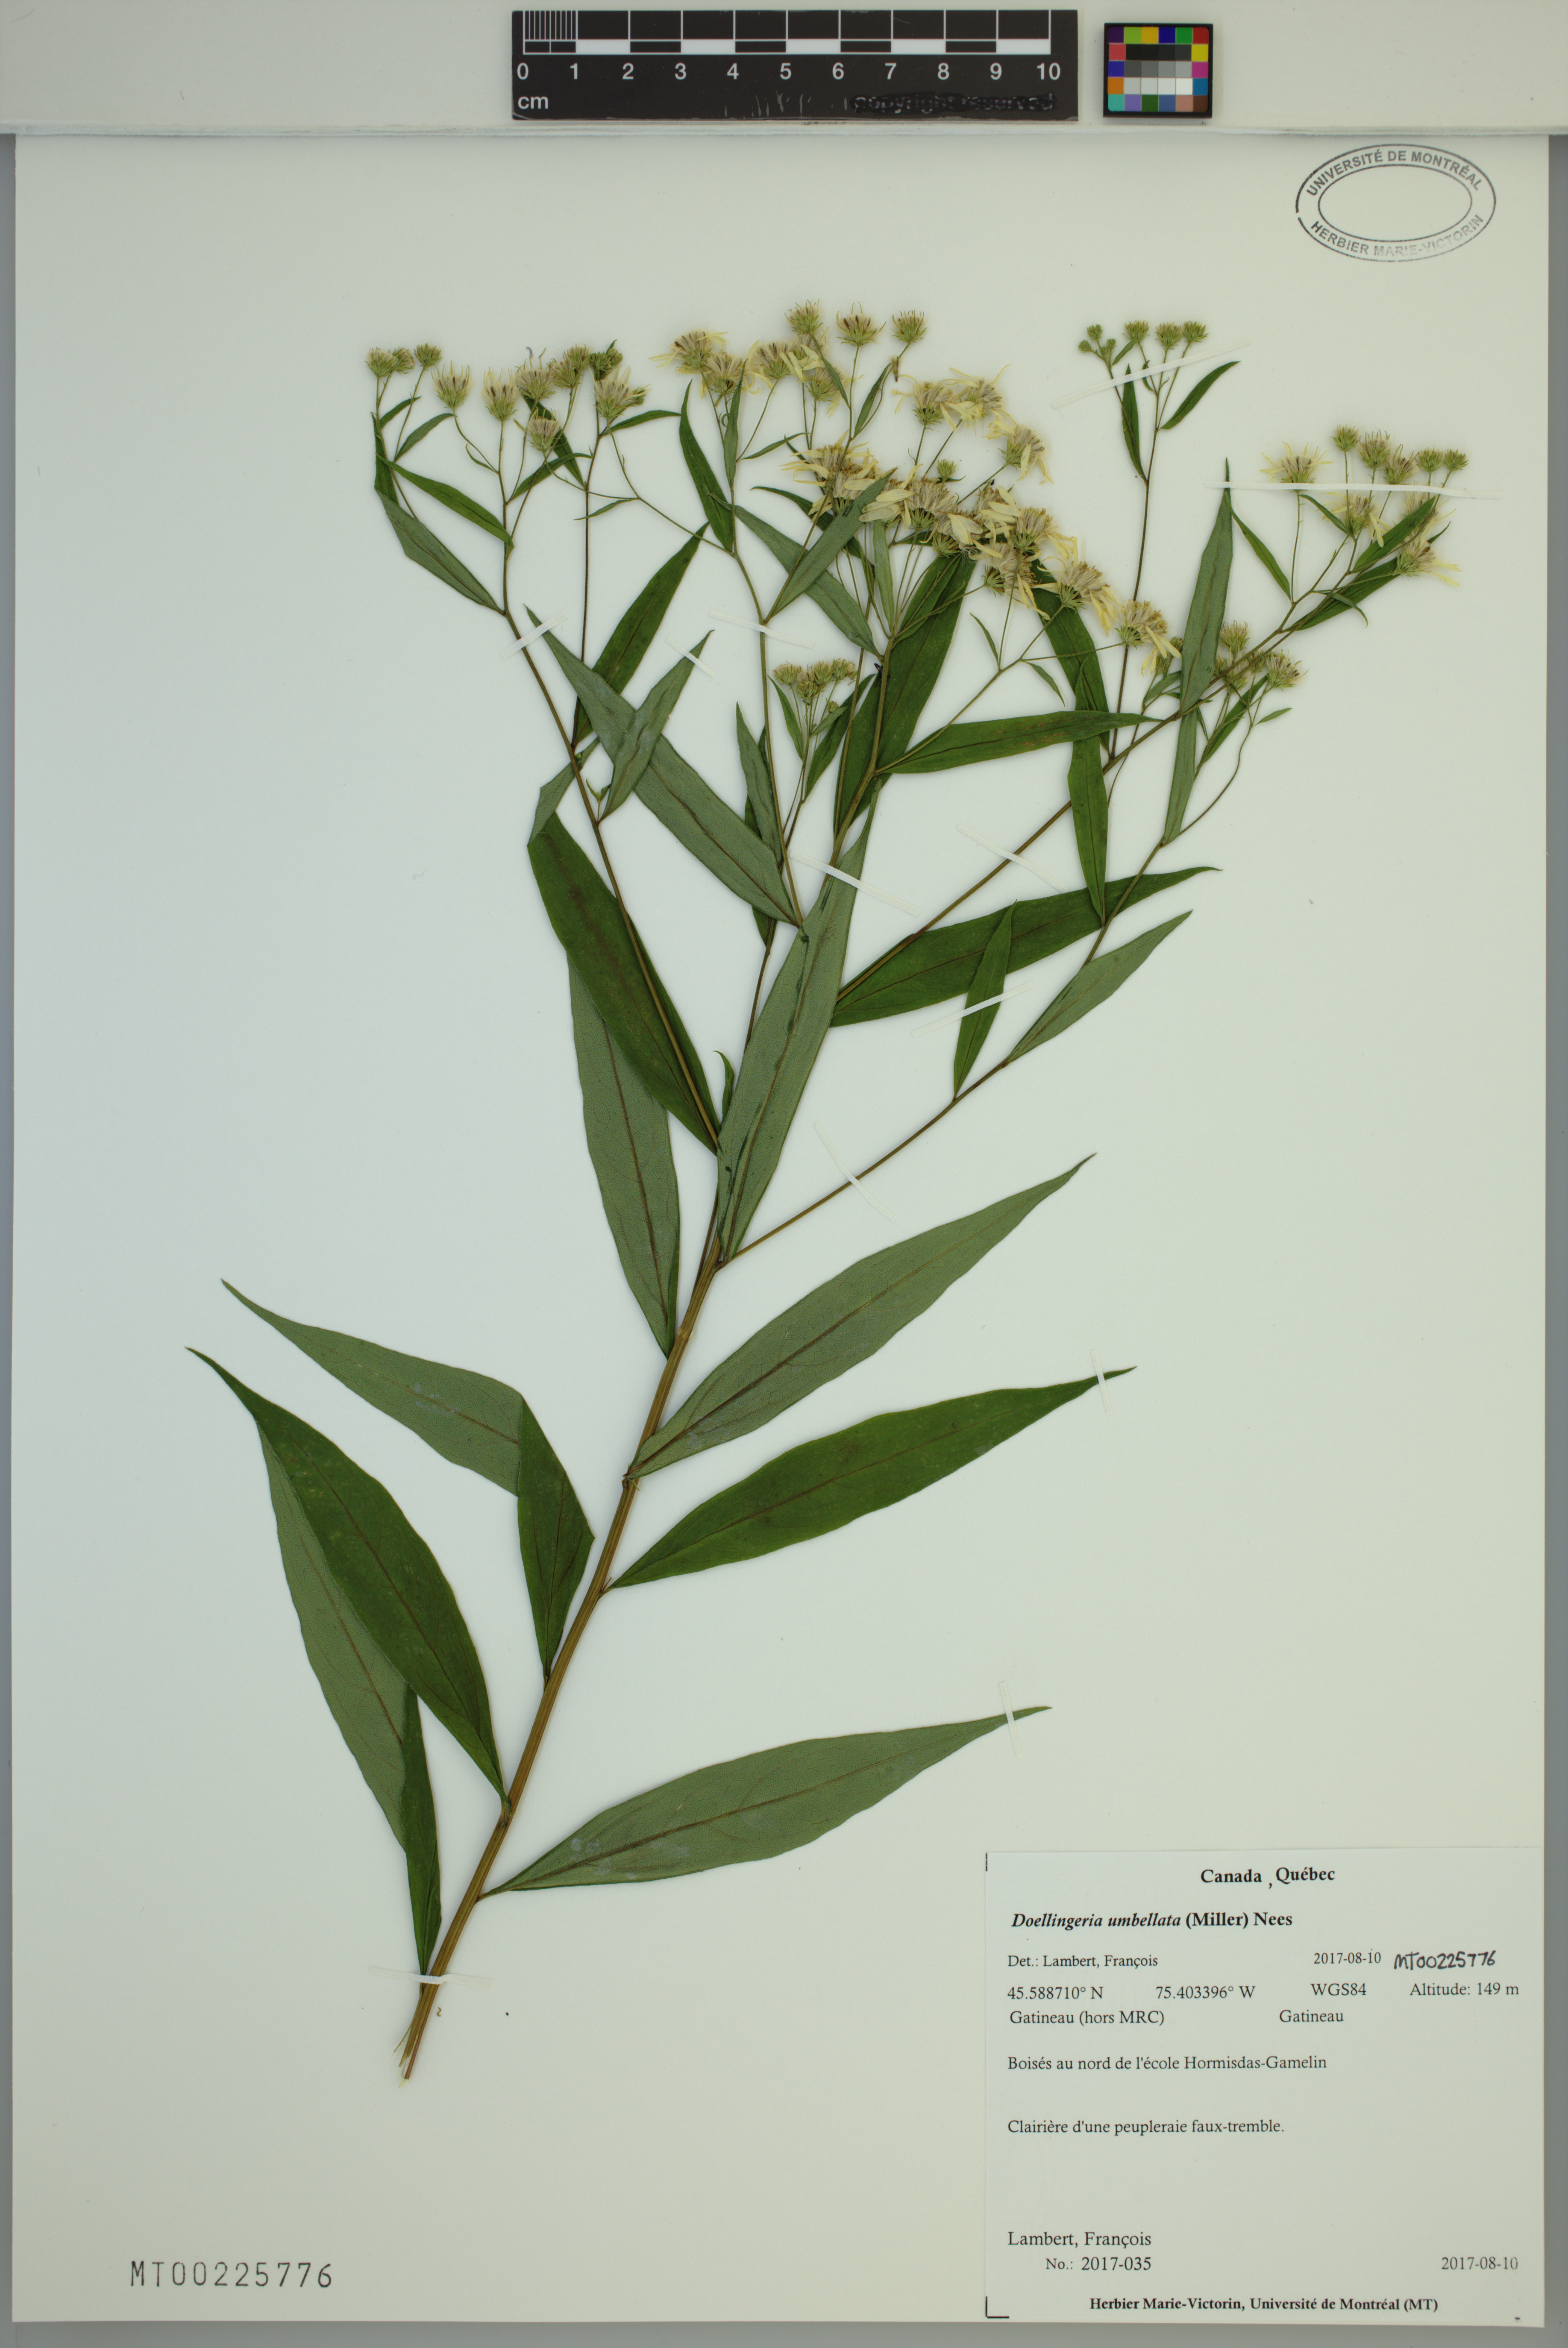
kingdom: Plantae
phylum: Tracheophyta
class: Magnoliopsida
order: Asterales
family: Asteraceae
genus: Doellingeria
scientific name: Doellingeria umbellata
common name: Flat-top white aster
